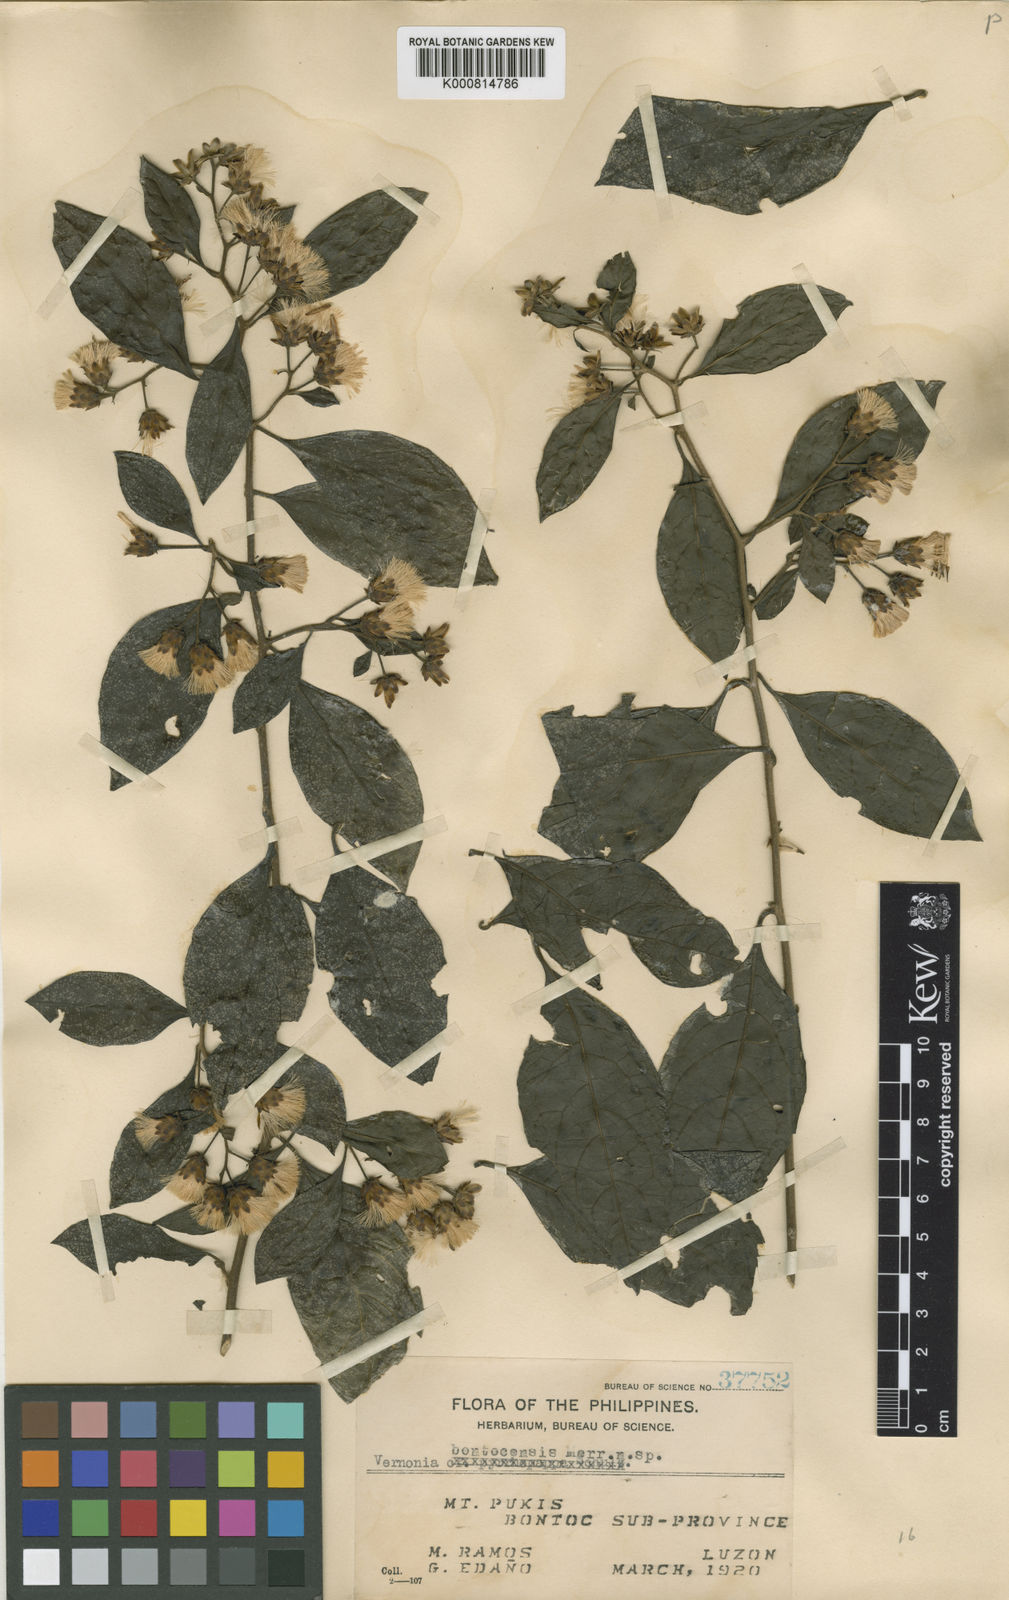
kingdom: Plantae
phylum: Tracheophyta
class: Magnoliopsida
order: Asterales
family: Asteraceae
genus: Vernonia
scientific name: Vernonia bontocensis
